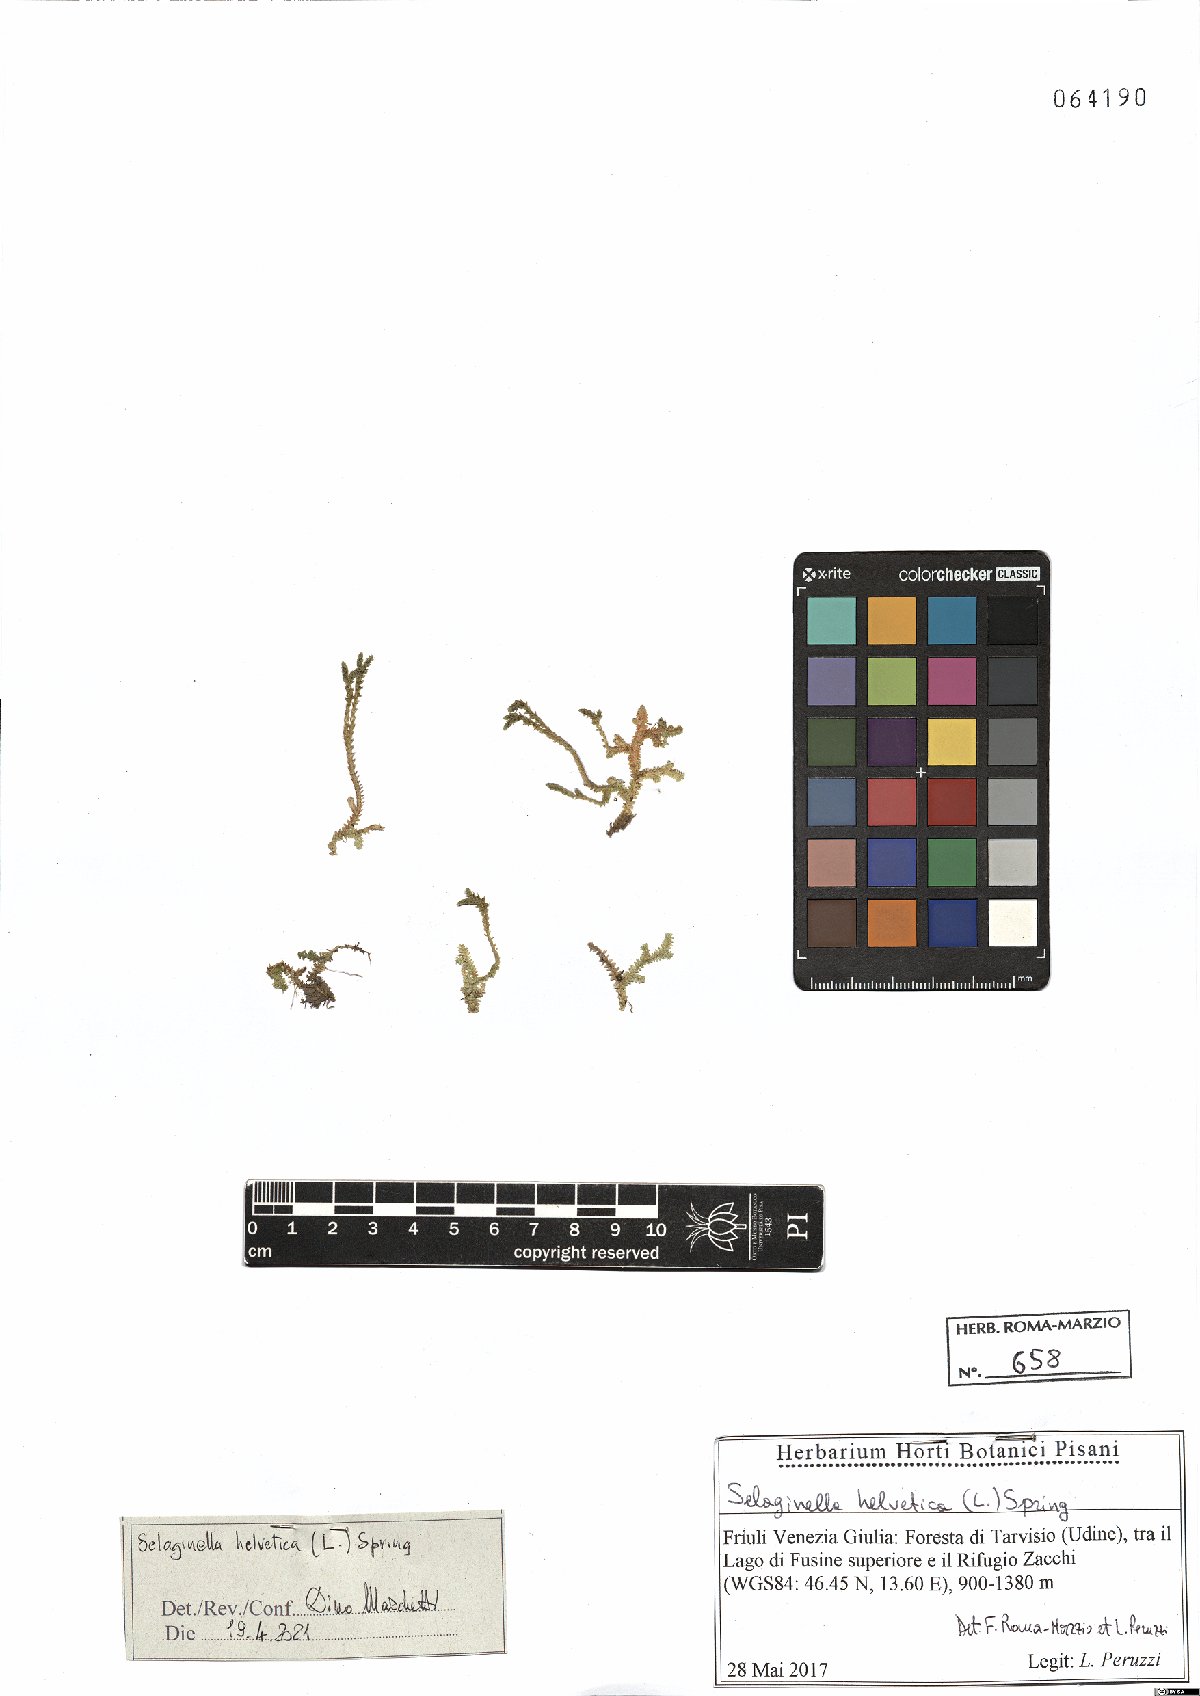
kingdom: Plantae
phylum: Tracheophyta
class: Lycopodiopsida
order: Selaginellales
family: Selaginellaceae
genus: Selaginella
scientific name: Selaginella helvetica
